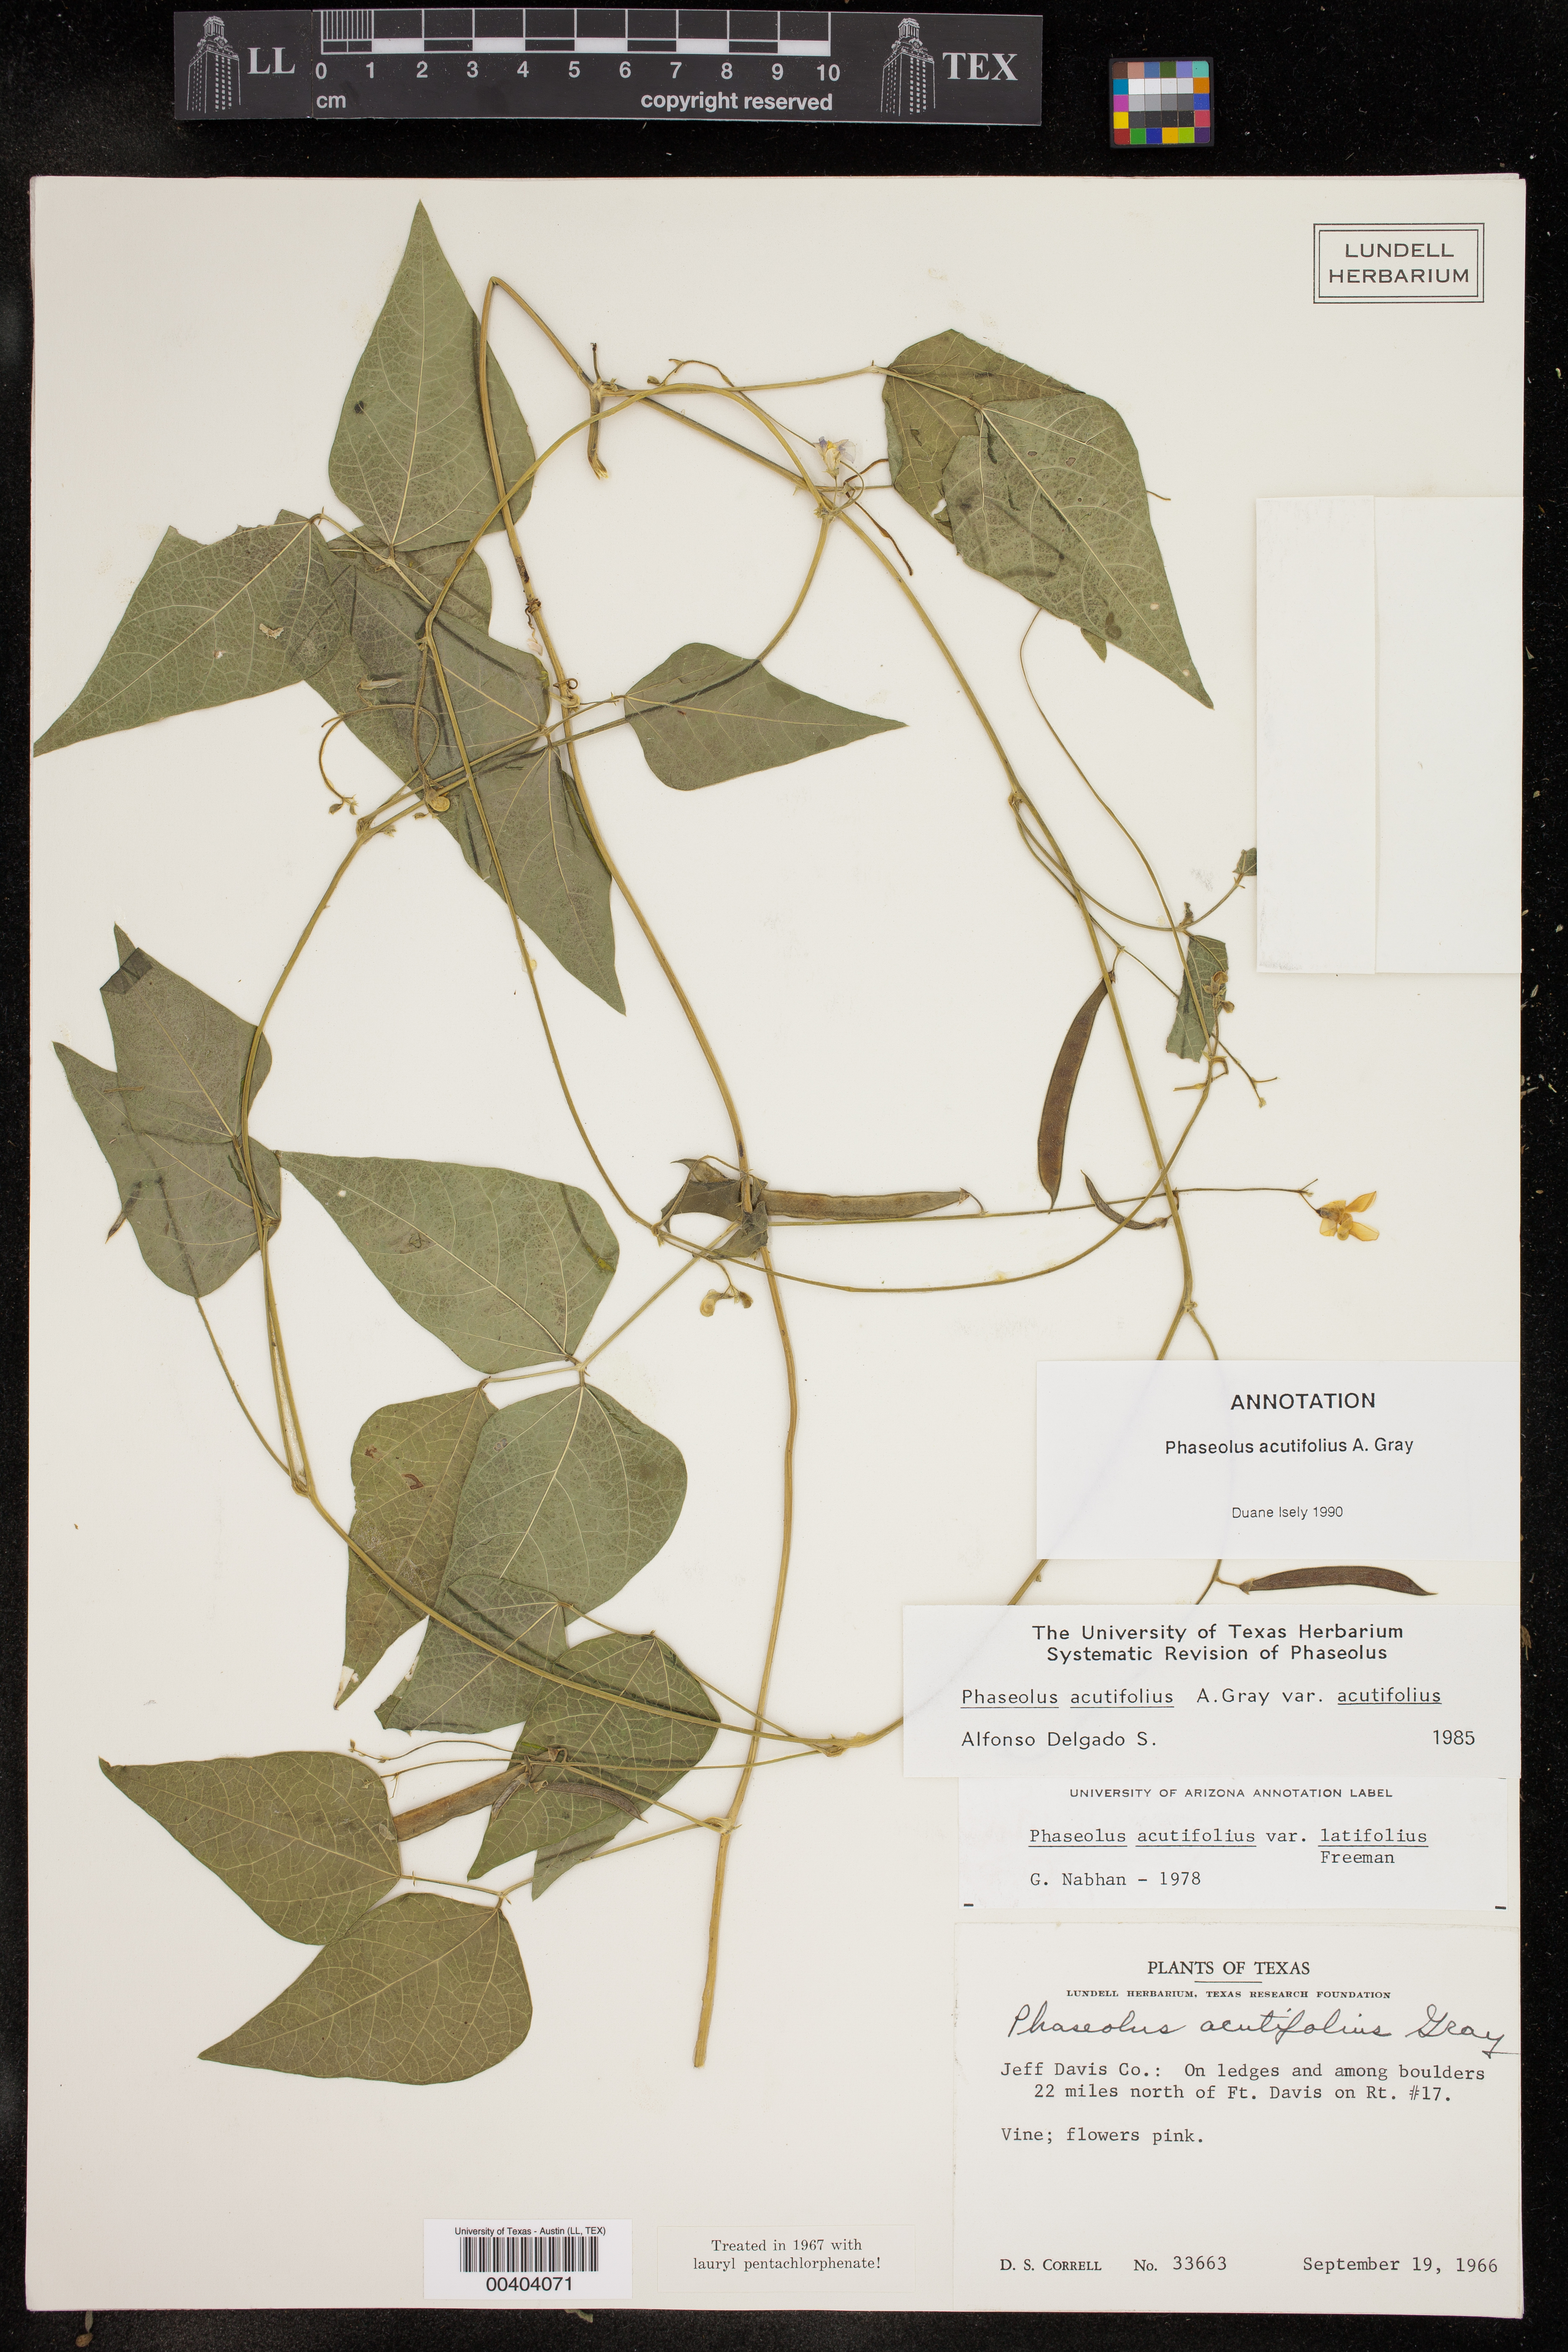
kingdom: Plantae
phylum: Tracheophyta
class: Magnoliopsida
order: Fabales
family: Fabaceae
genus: Phaseolus
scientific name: Phaseolus acutifolius
